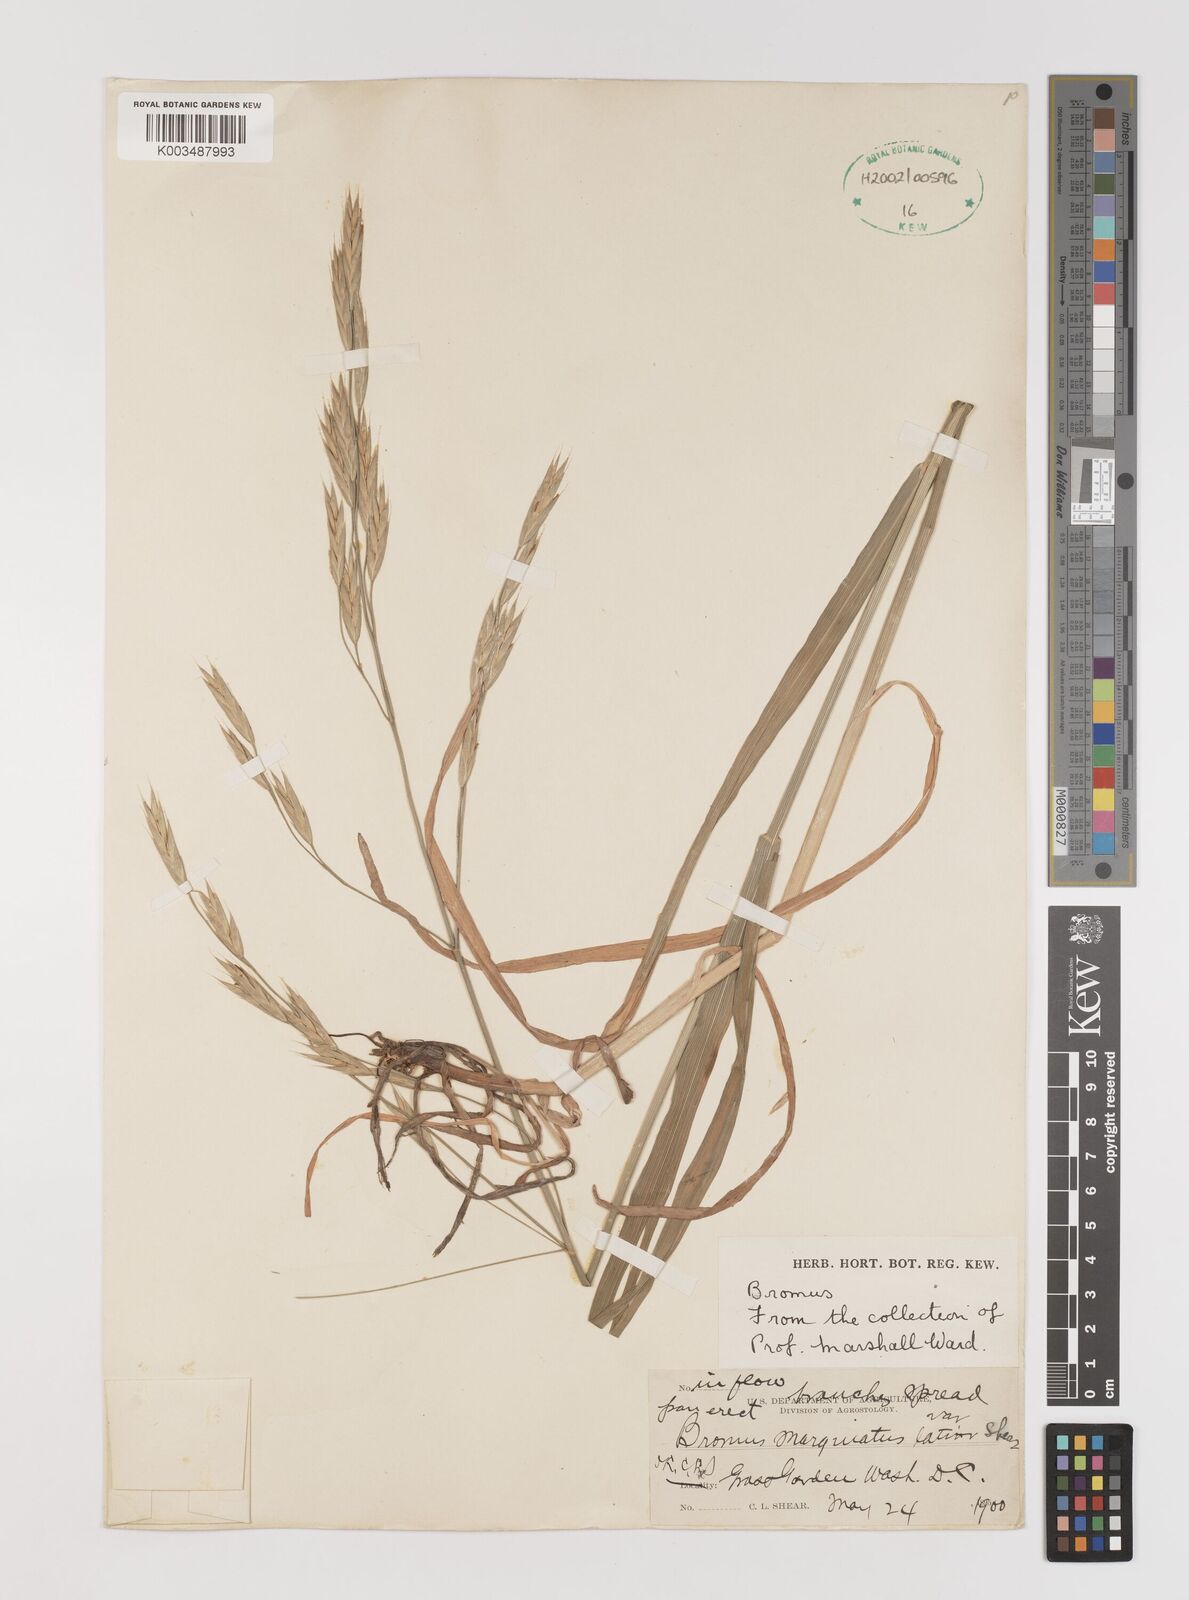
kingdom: Plantae
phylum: Tracheophyta
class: Liliopsida
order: Poales
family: Poaceae
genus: Bromus
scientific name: Bromus marginatus
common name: Western brome
